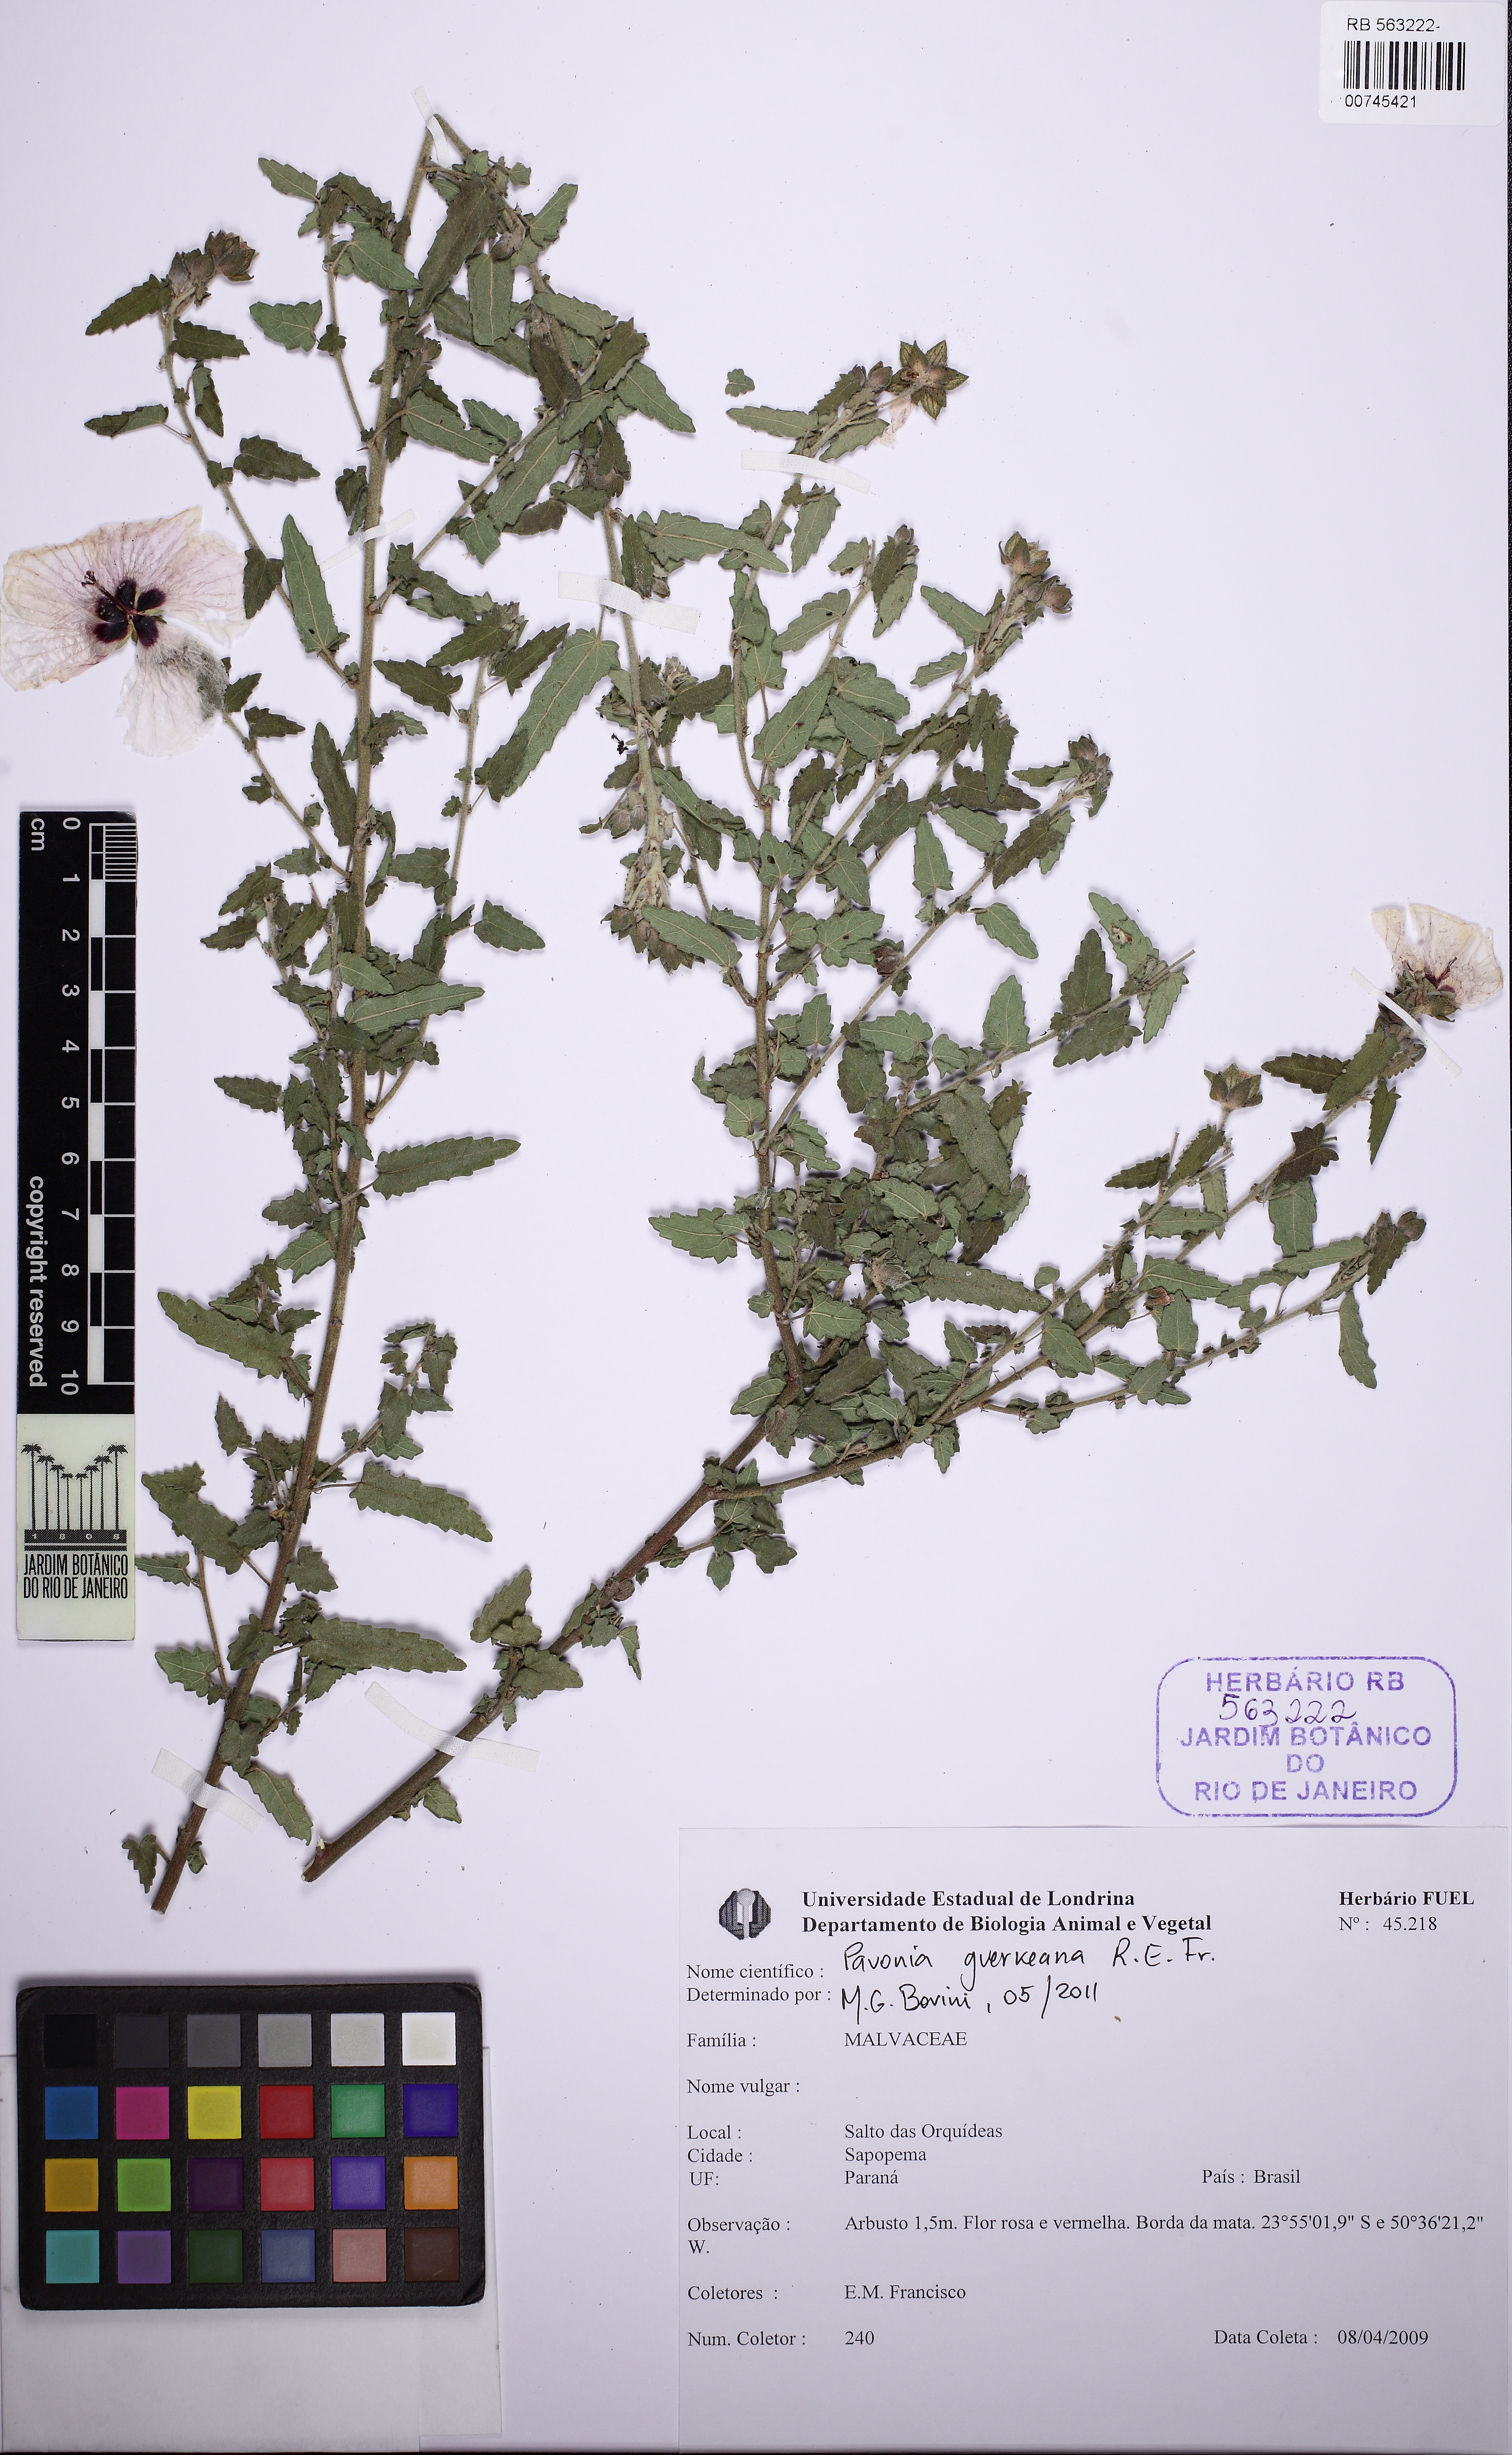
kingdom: Plantae
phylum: Tracheophyta
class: Magnoliopsida
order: Malvales
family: Malvaceae
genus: Pavonia
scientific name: Pavonia guerkeana
